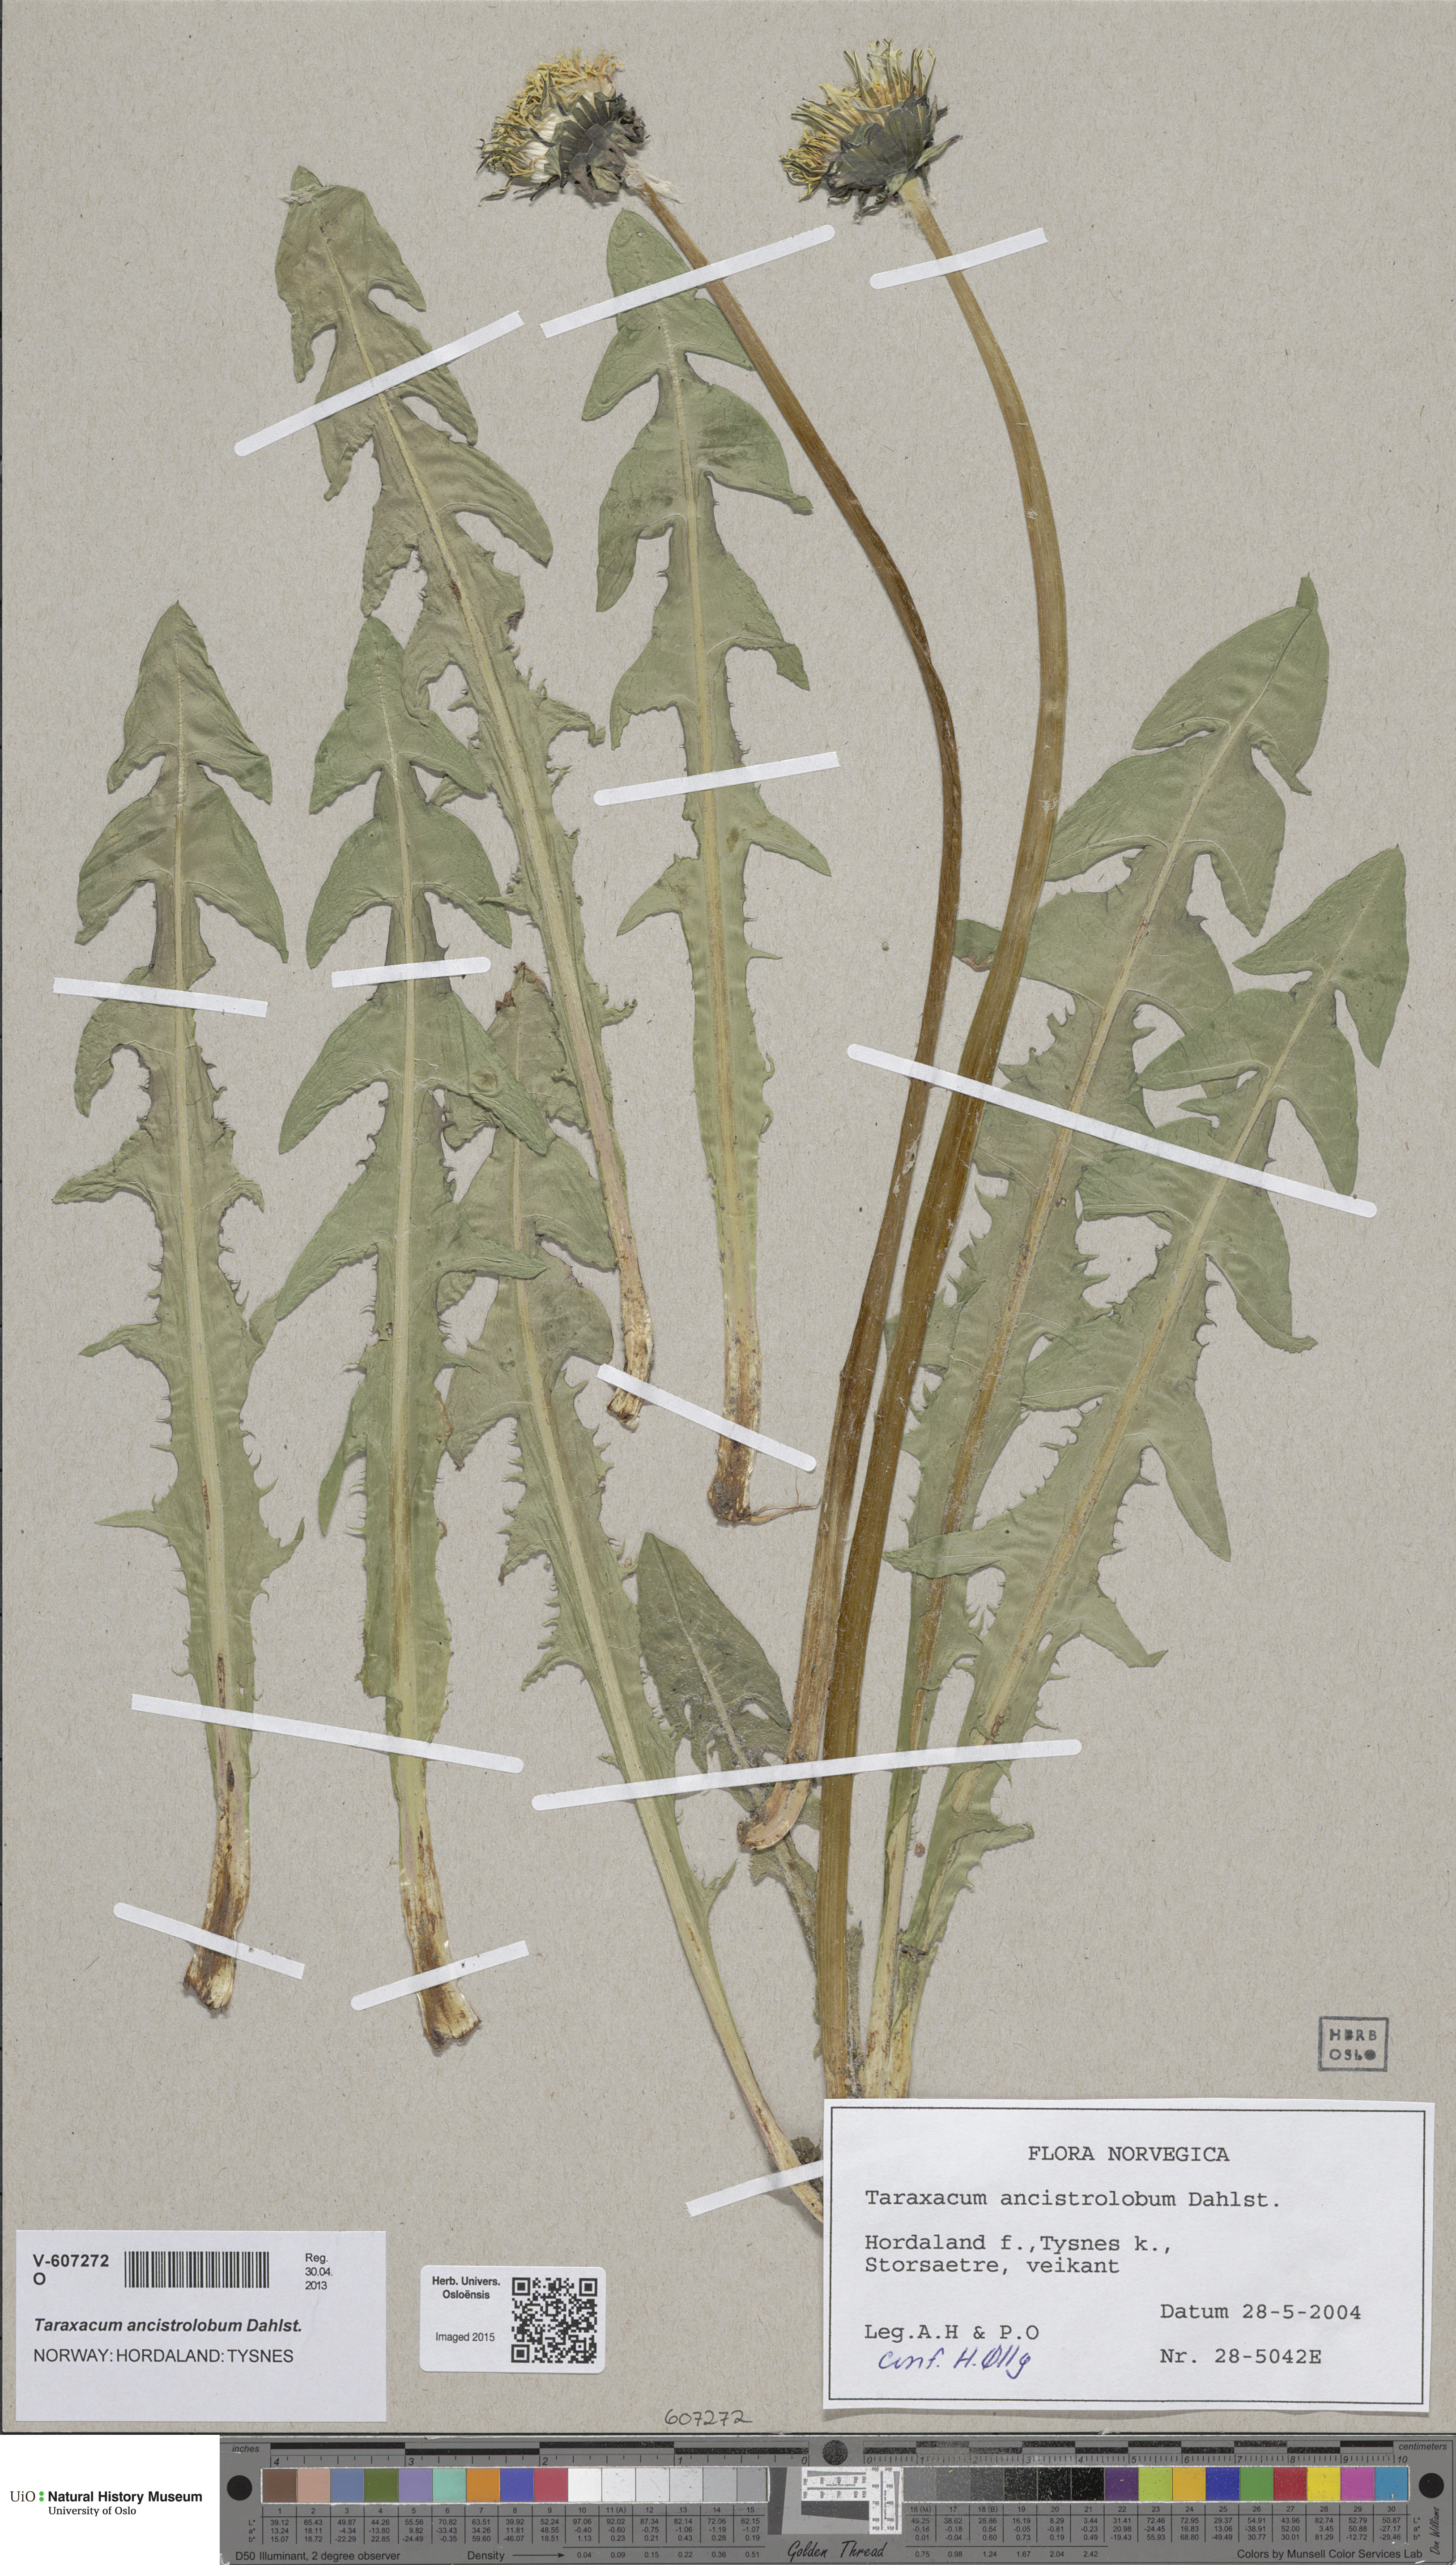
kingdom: Plantae
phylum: Tracheophyta
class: Magnoliopsida
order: Asterales
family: Asteraceae
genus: Taraxacum
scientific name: Taraxacum ancistrolobum
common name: Few-lobed dandelion
